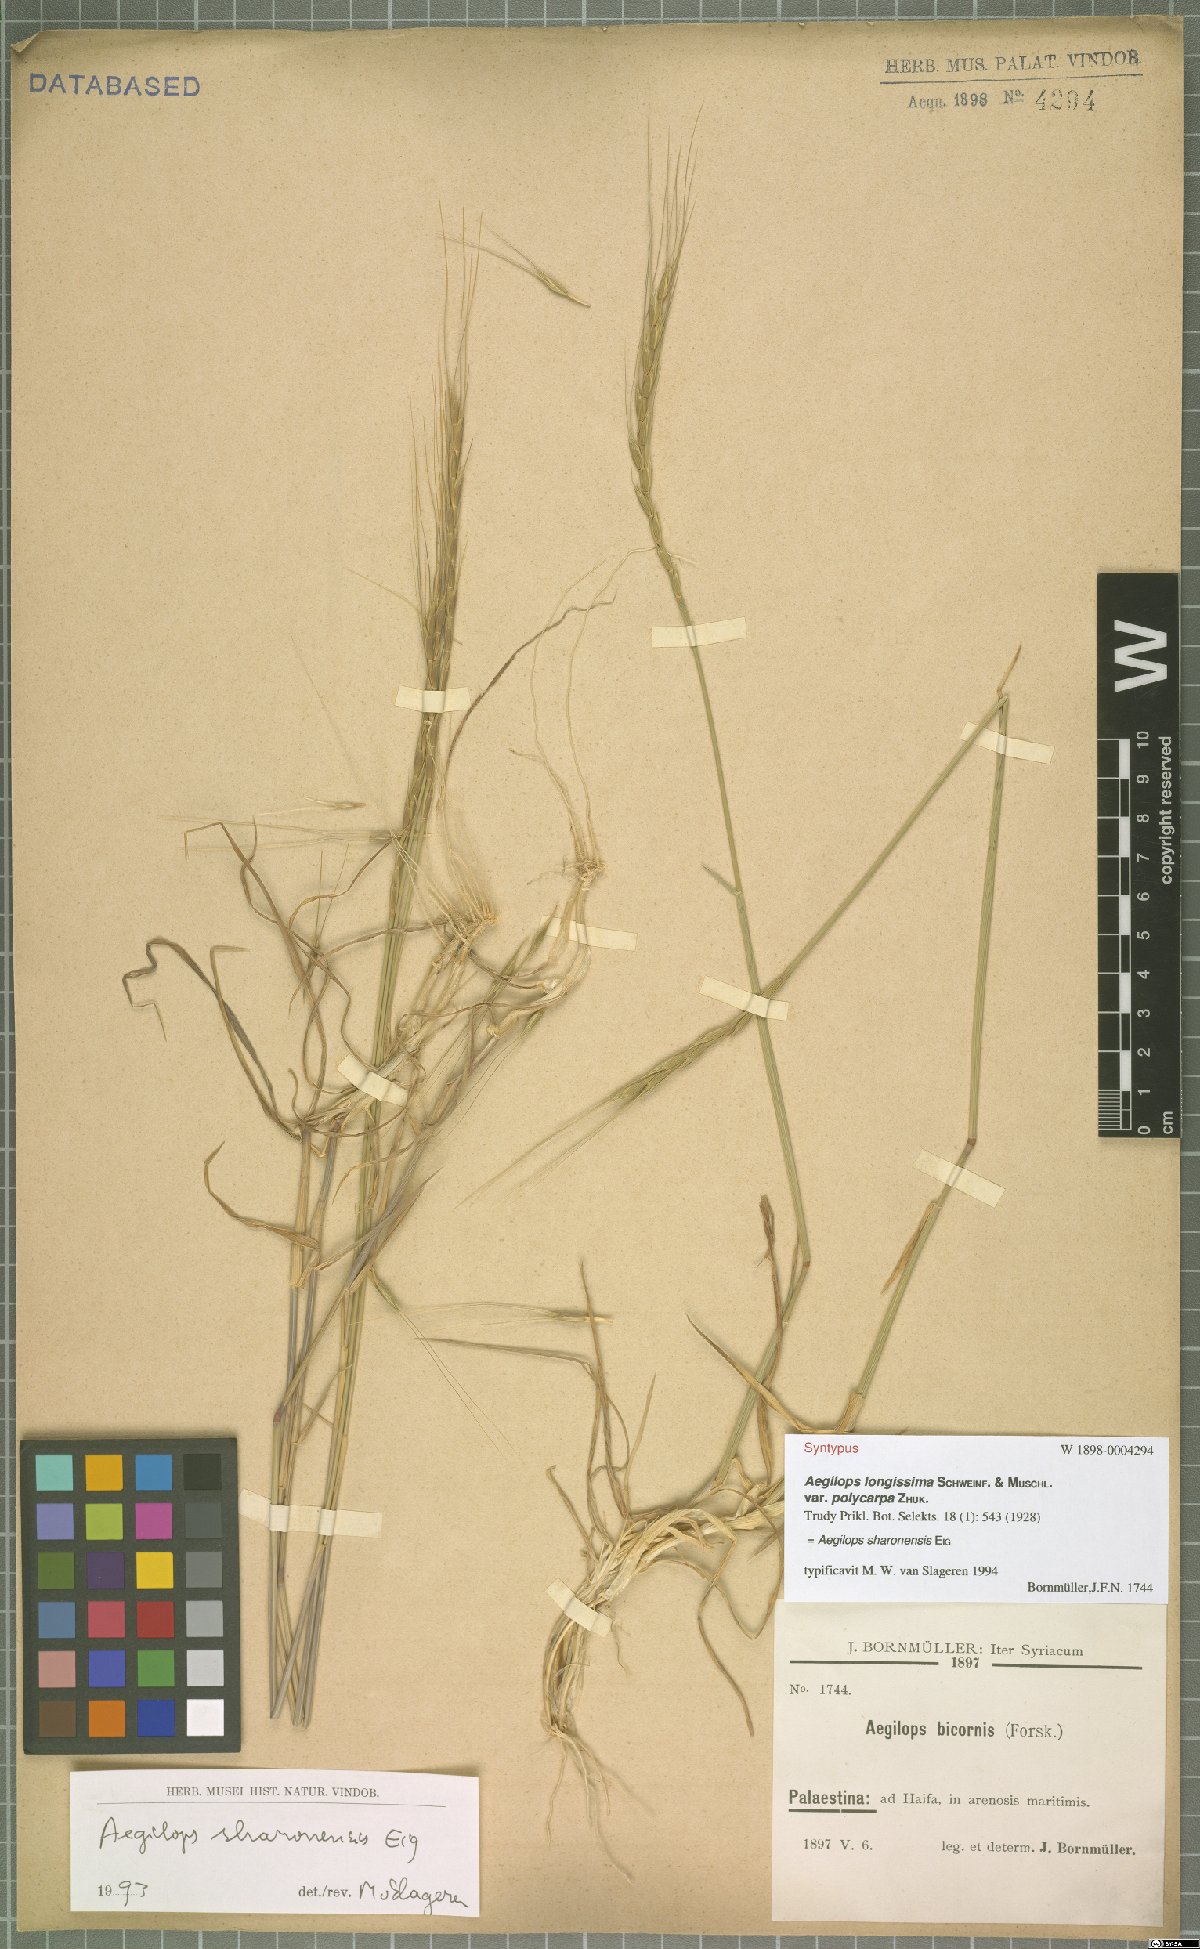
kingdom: Plantae
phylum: Tracheophyta
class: Liliopsida
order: Poales
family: Poaceae
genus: Aegilops
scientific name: Aegilops sharonensis
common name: Sharon goatgrass
